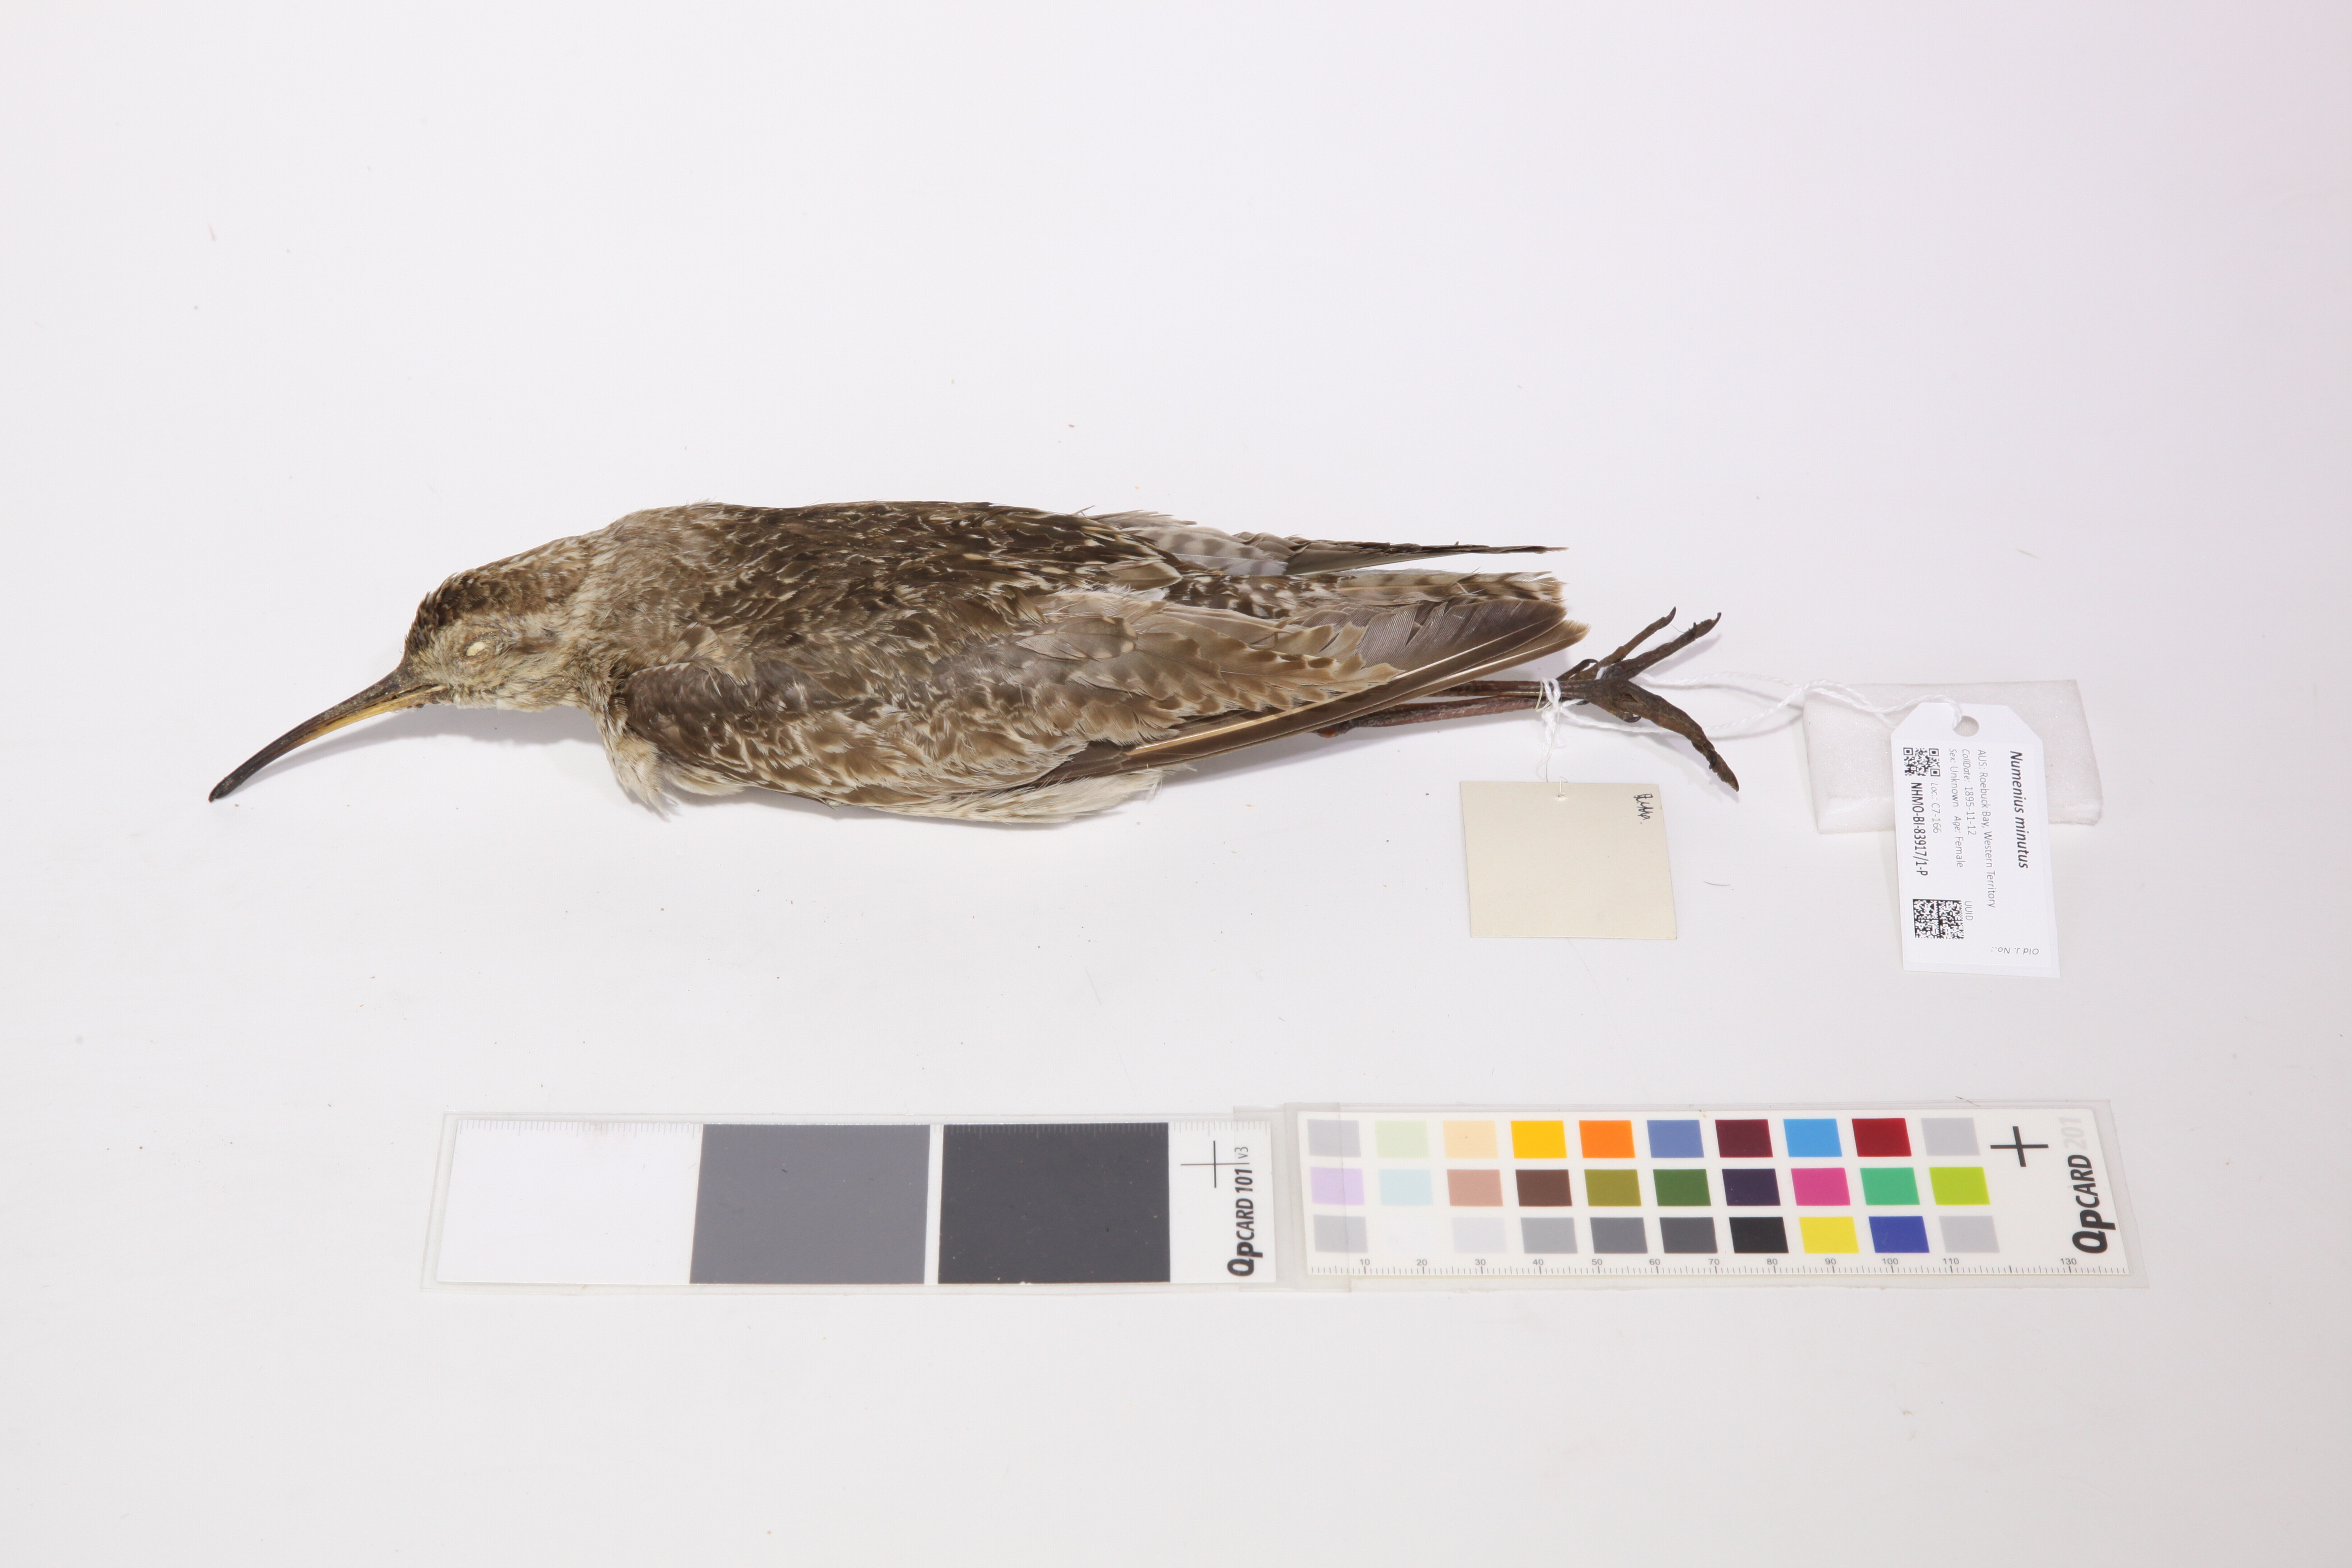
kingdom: Animalia
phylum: Chordata
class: Aves
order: Charadriiformes
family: Scolopacidae
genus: Numenius
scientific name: Numenius minutus
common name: Little curlew
